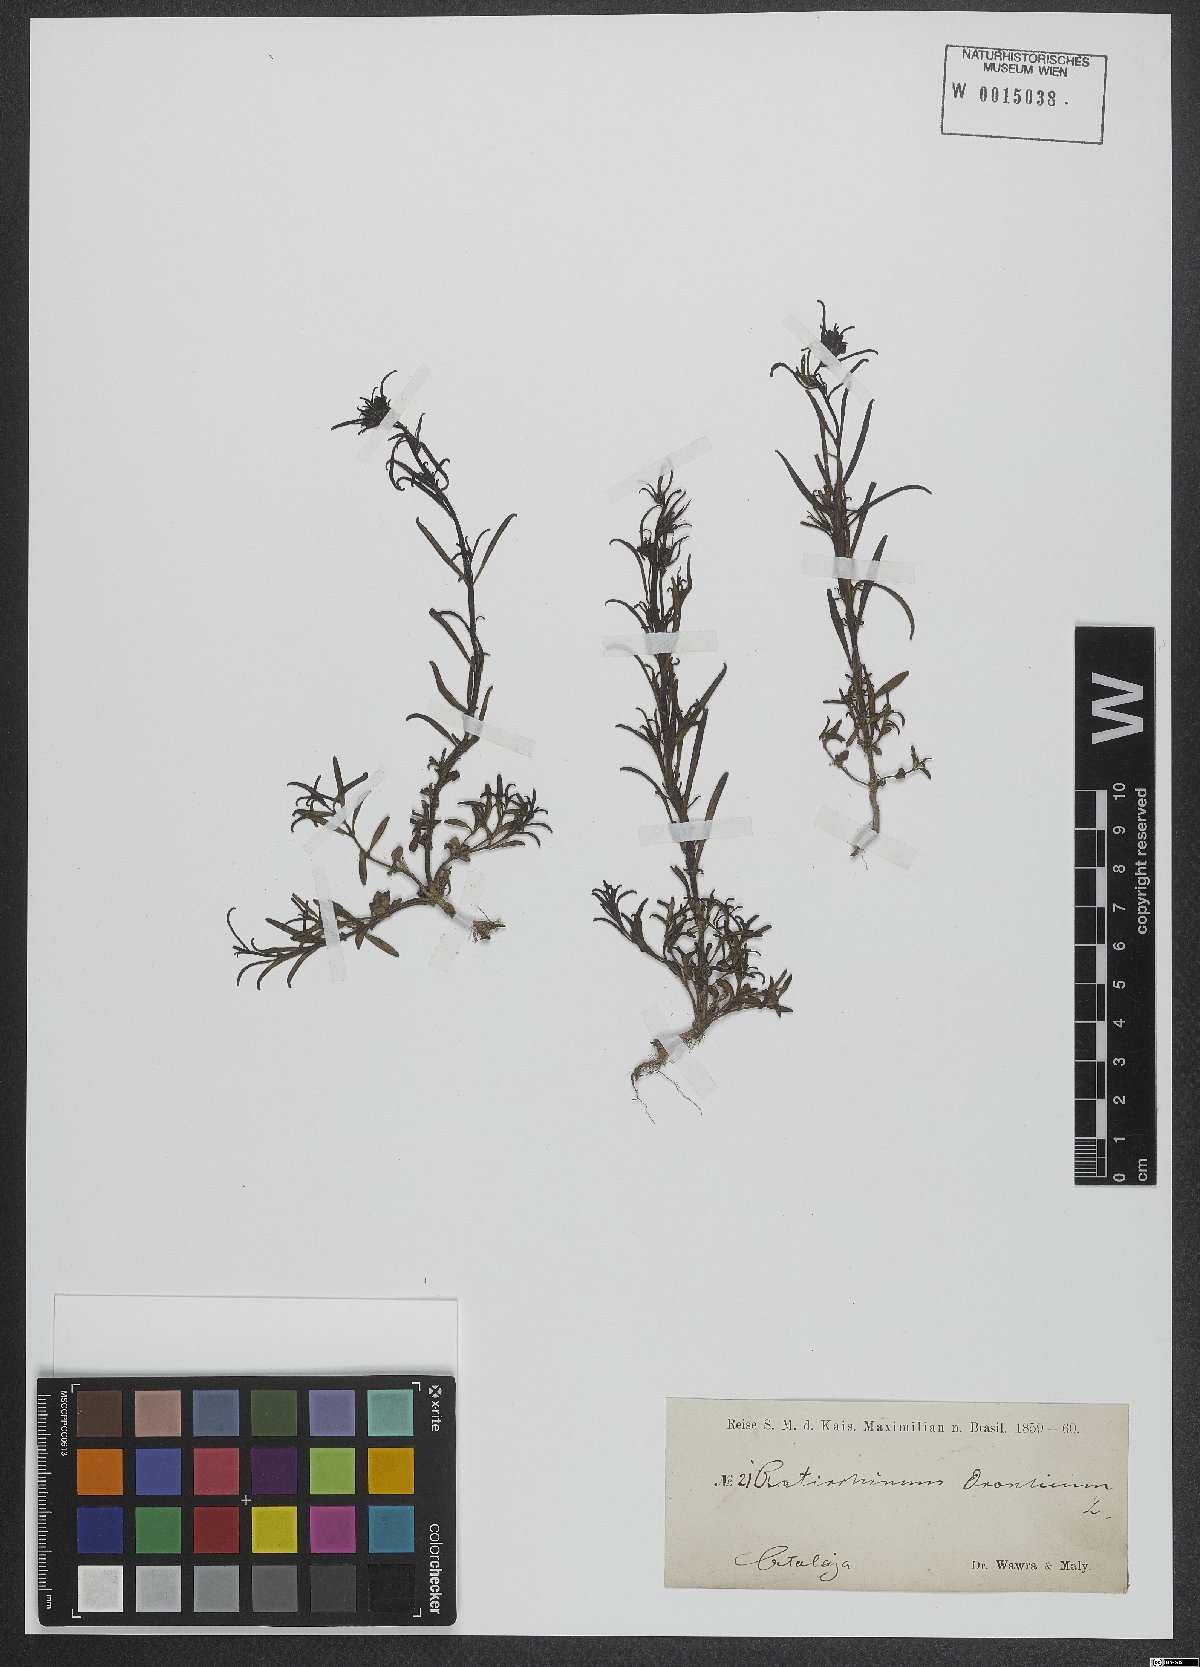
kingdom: Plantae
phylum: Tracheophyta
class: Magnoliopsida
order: Lamiales
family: Plantaginaceae
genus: Misopates
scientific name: Misopates orontium
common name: Weasel's-snout
